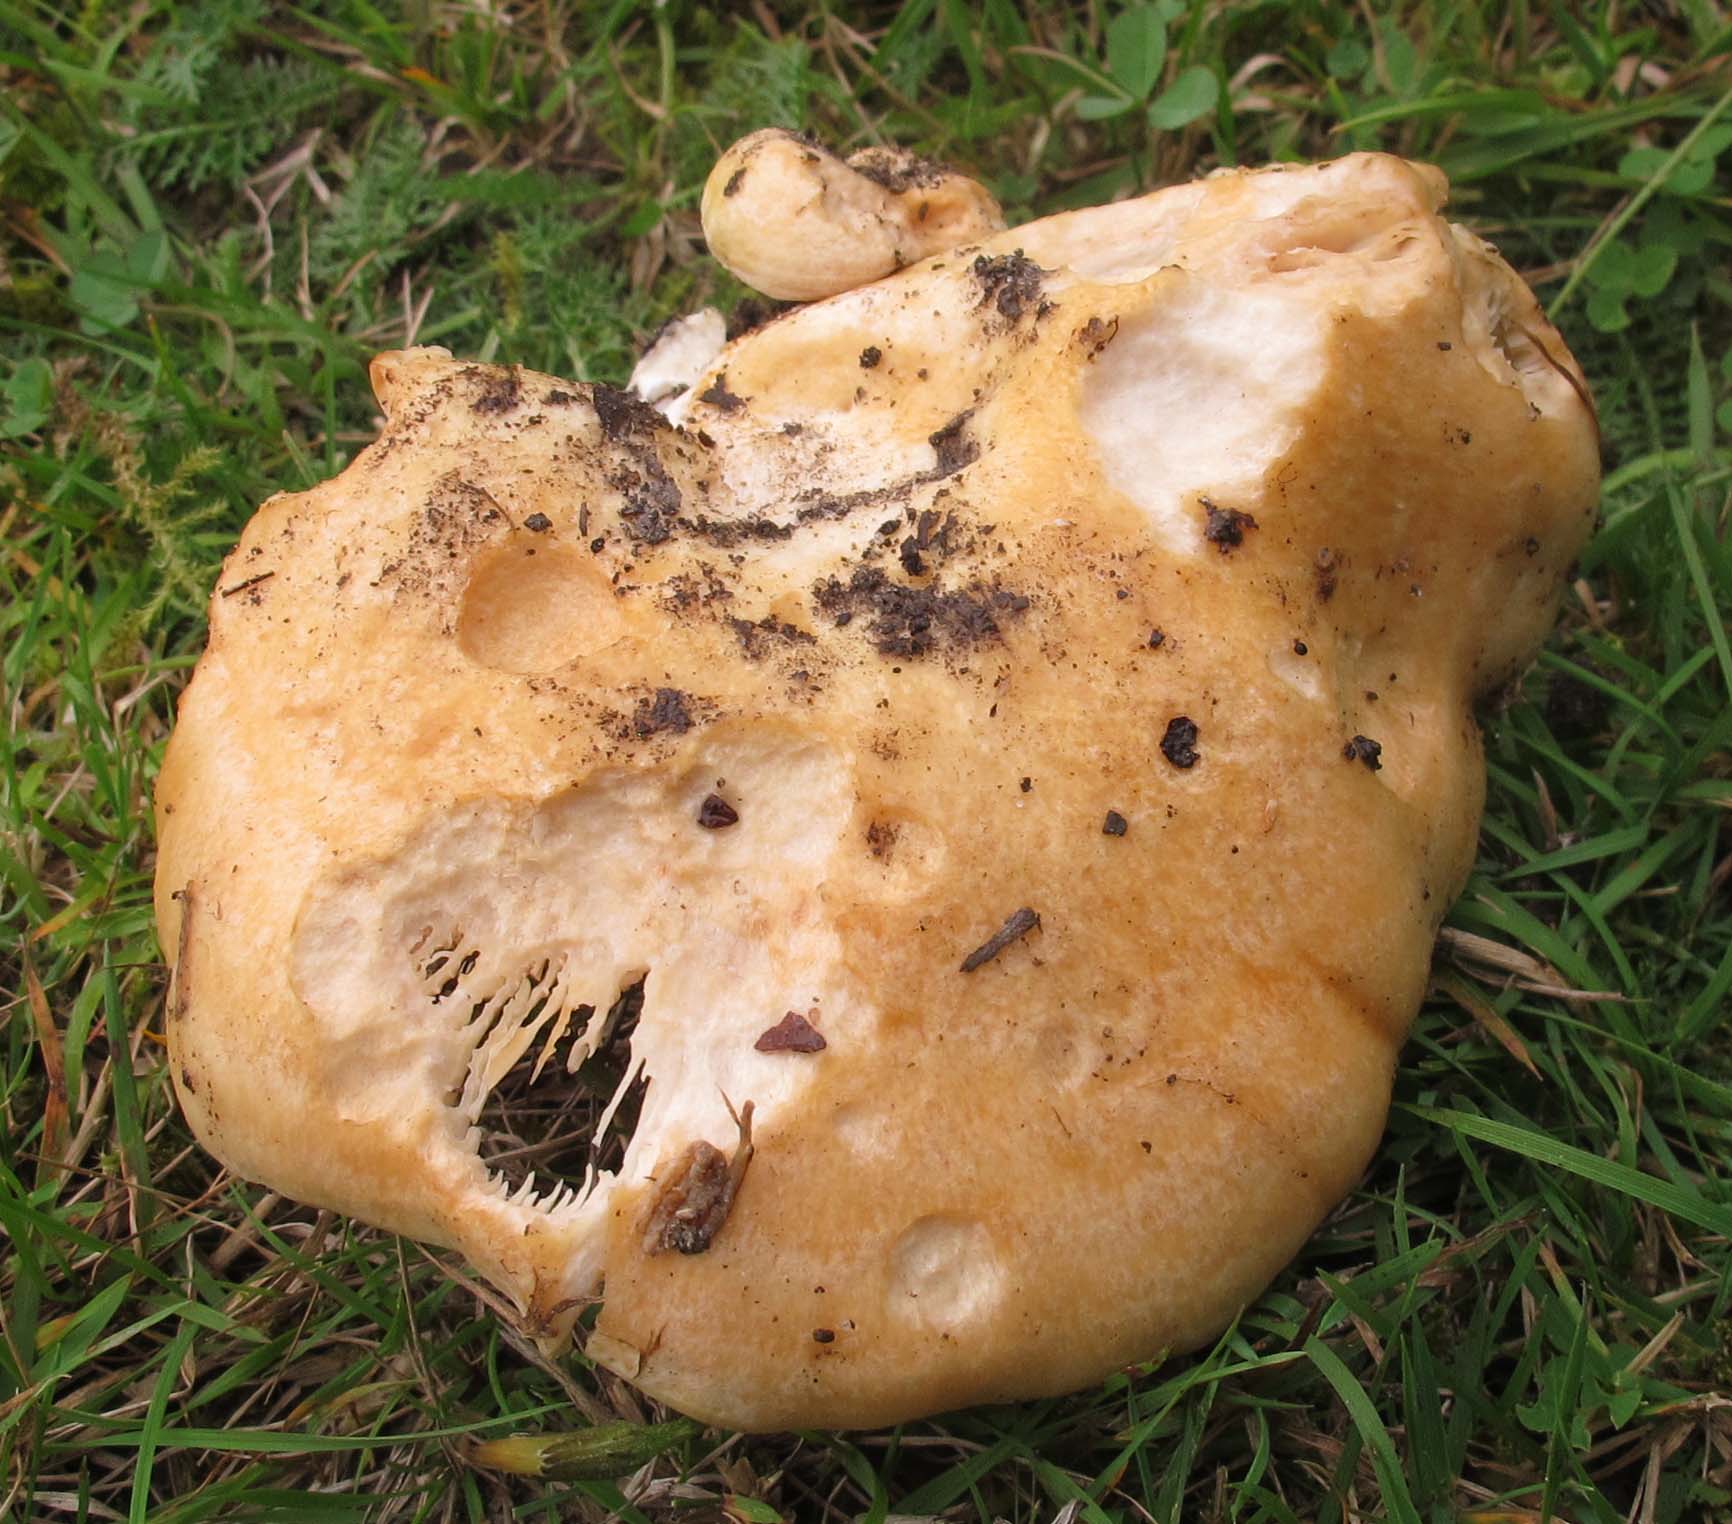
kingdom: Fungi
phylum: Basidiomycota
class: Agaricomycetes
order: Russulales
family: Russulaceae
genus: Lactarius
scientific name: Lactarius acerrimus
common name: brændende mælkehat
